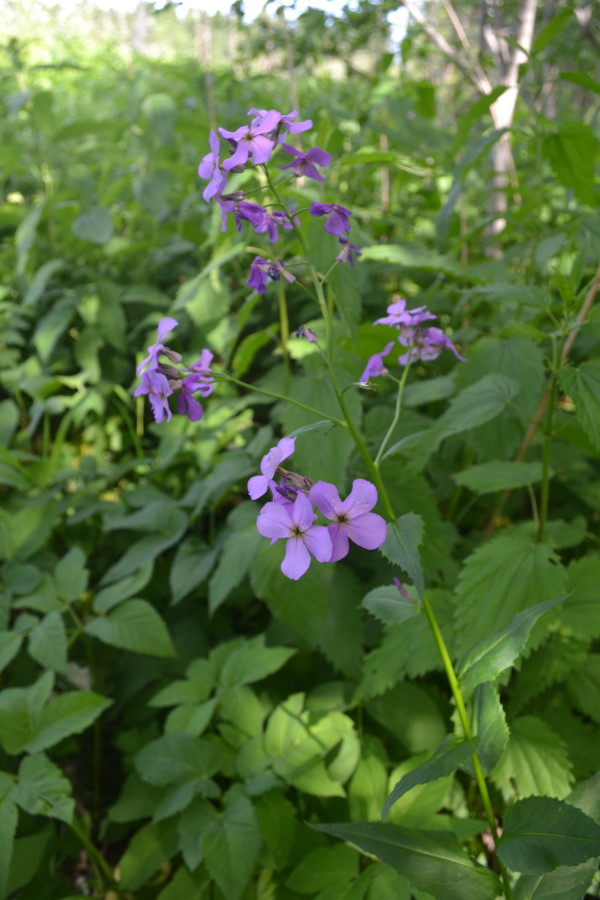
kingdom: Plantae
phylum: Tracheophyta
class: Magnoliopsida
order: Brassicales
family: Brassicaceae
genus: Hesperis
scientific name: Hesperis pycnotricha
